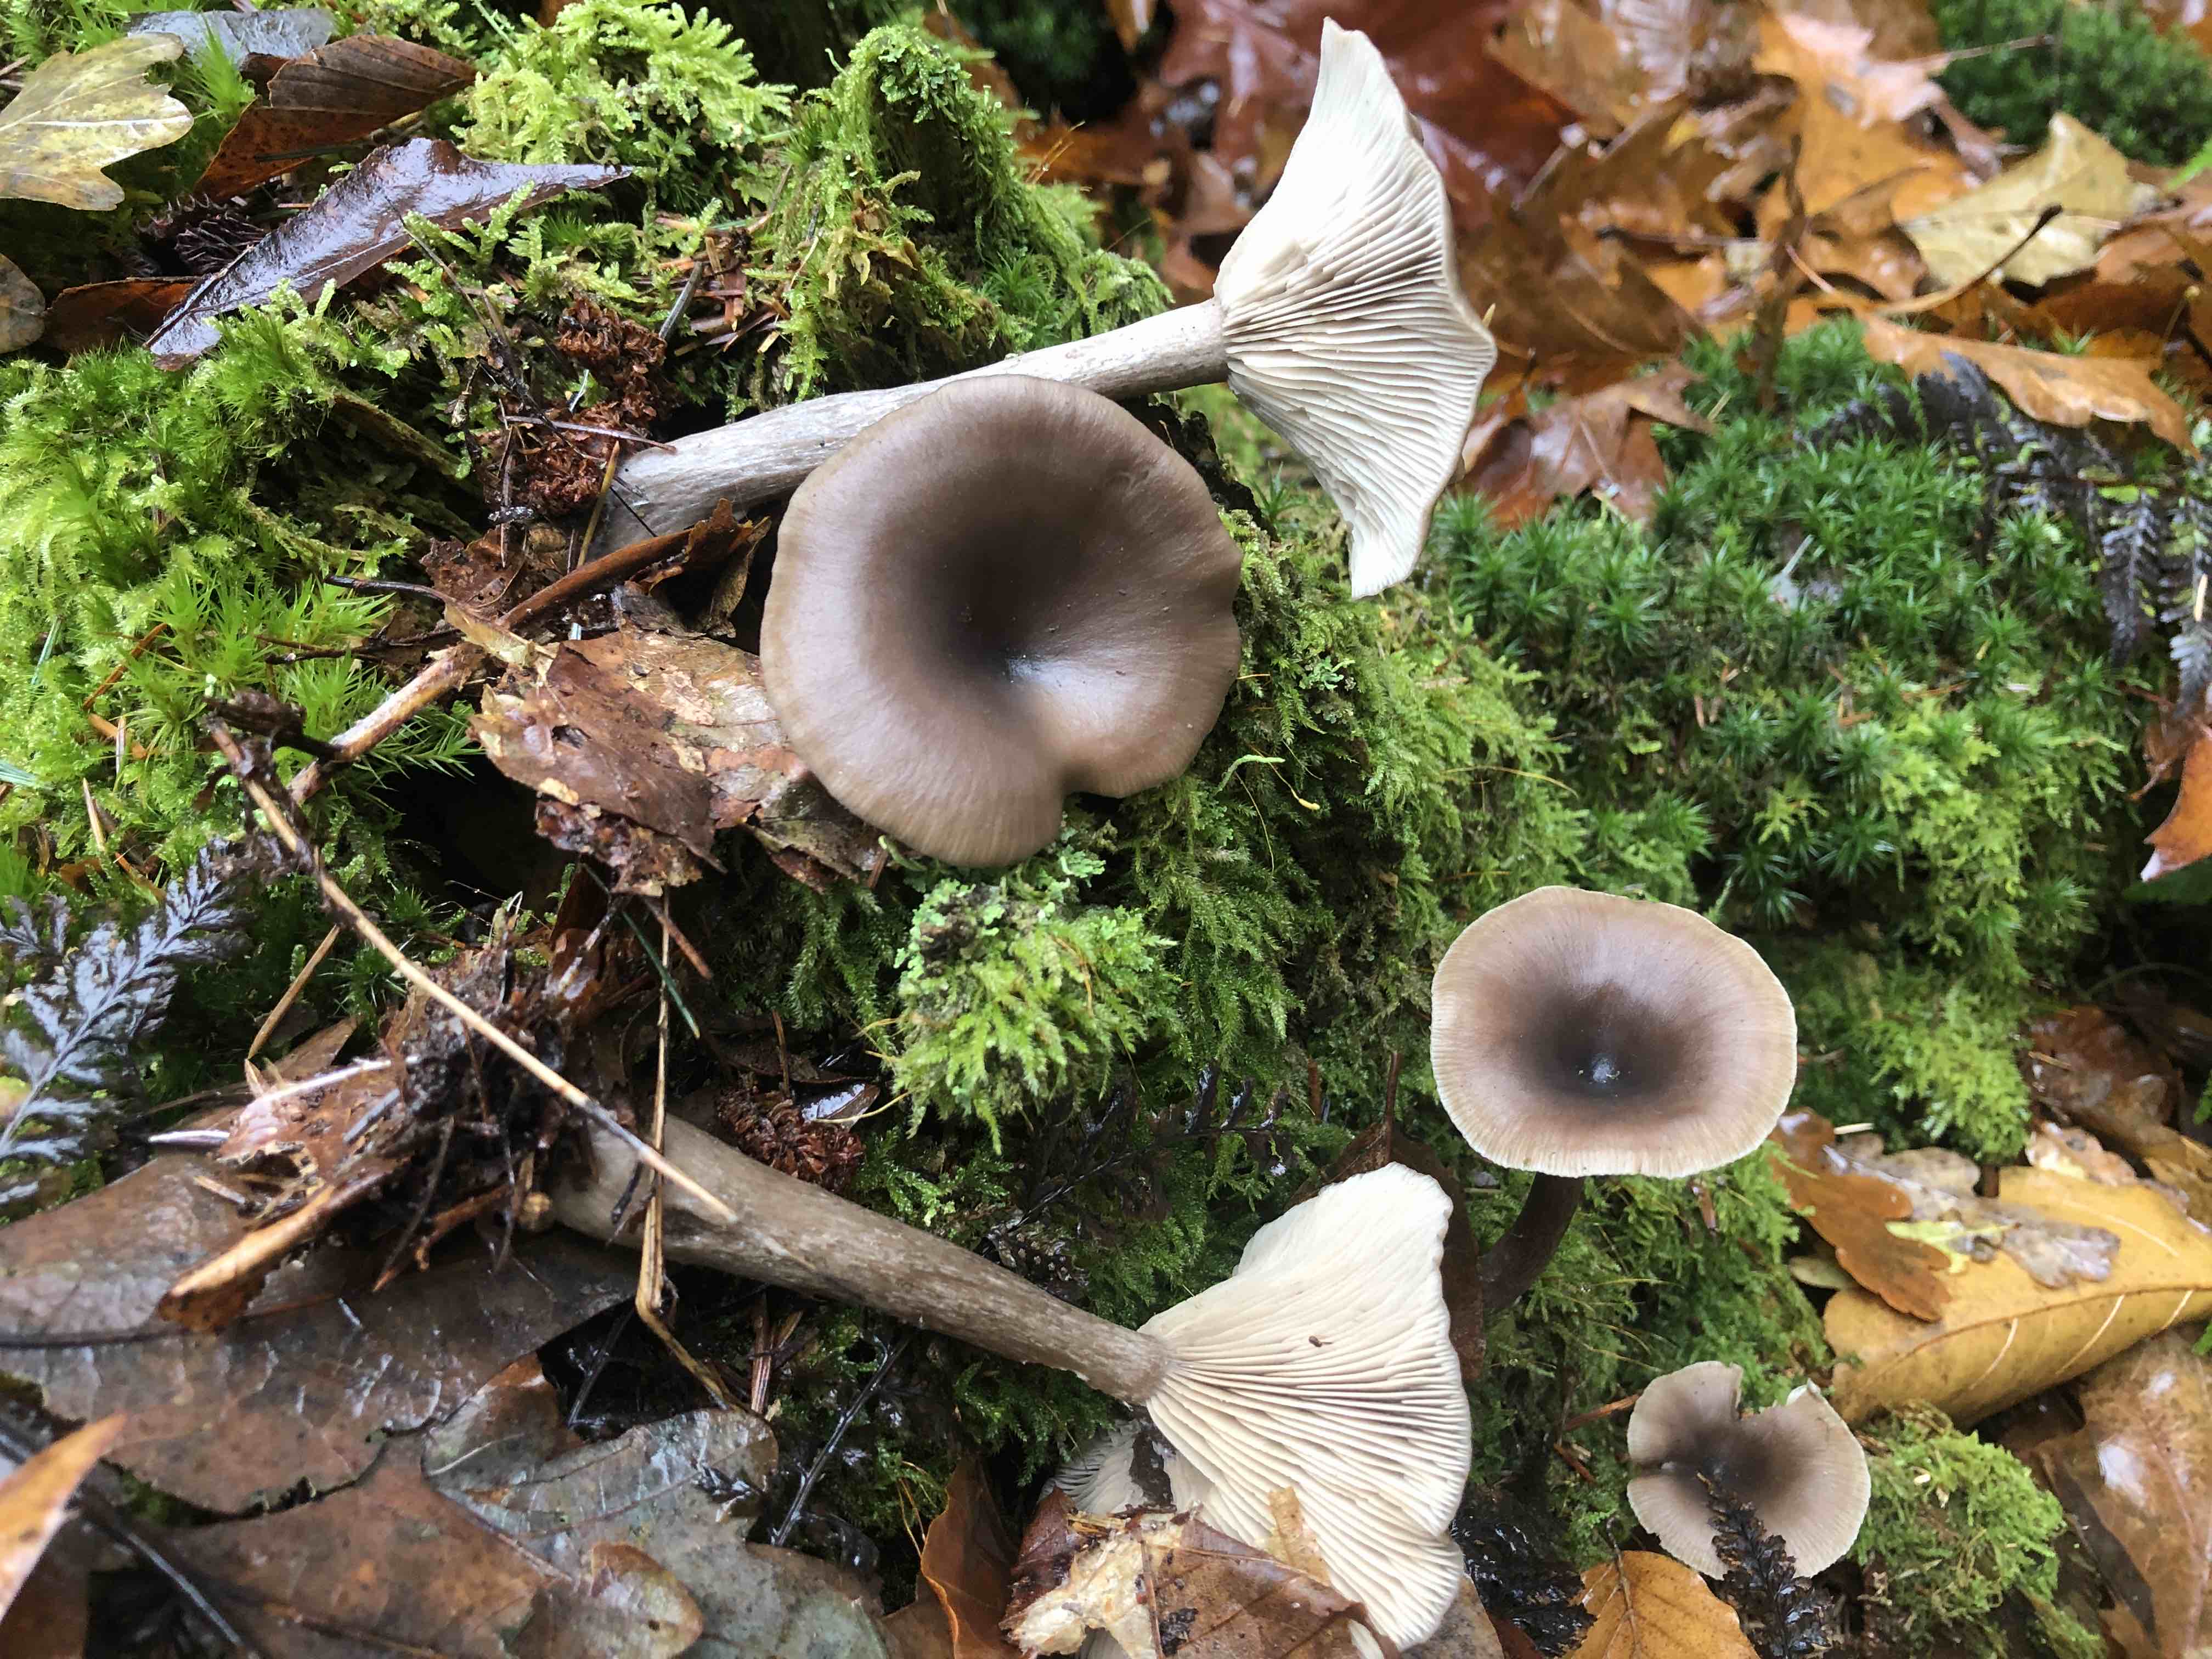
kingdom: Fungi
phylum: Basidiomycota
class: Agaricomycetes
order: Agaricales
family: Pseudoclitocybaceae
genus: Pseudoclitocybe
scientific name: Pseudoclitocybe cyathiformis
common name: almindelig bægertragthat
